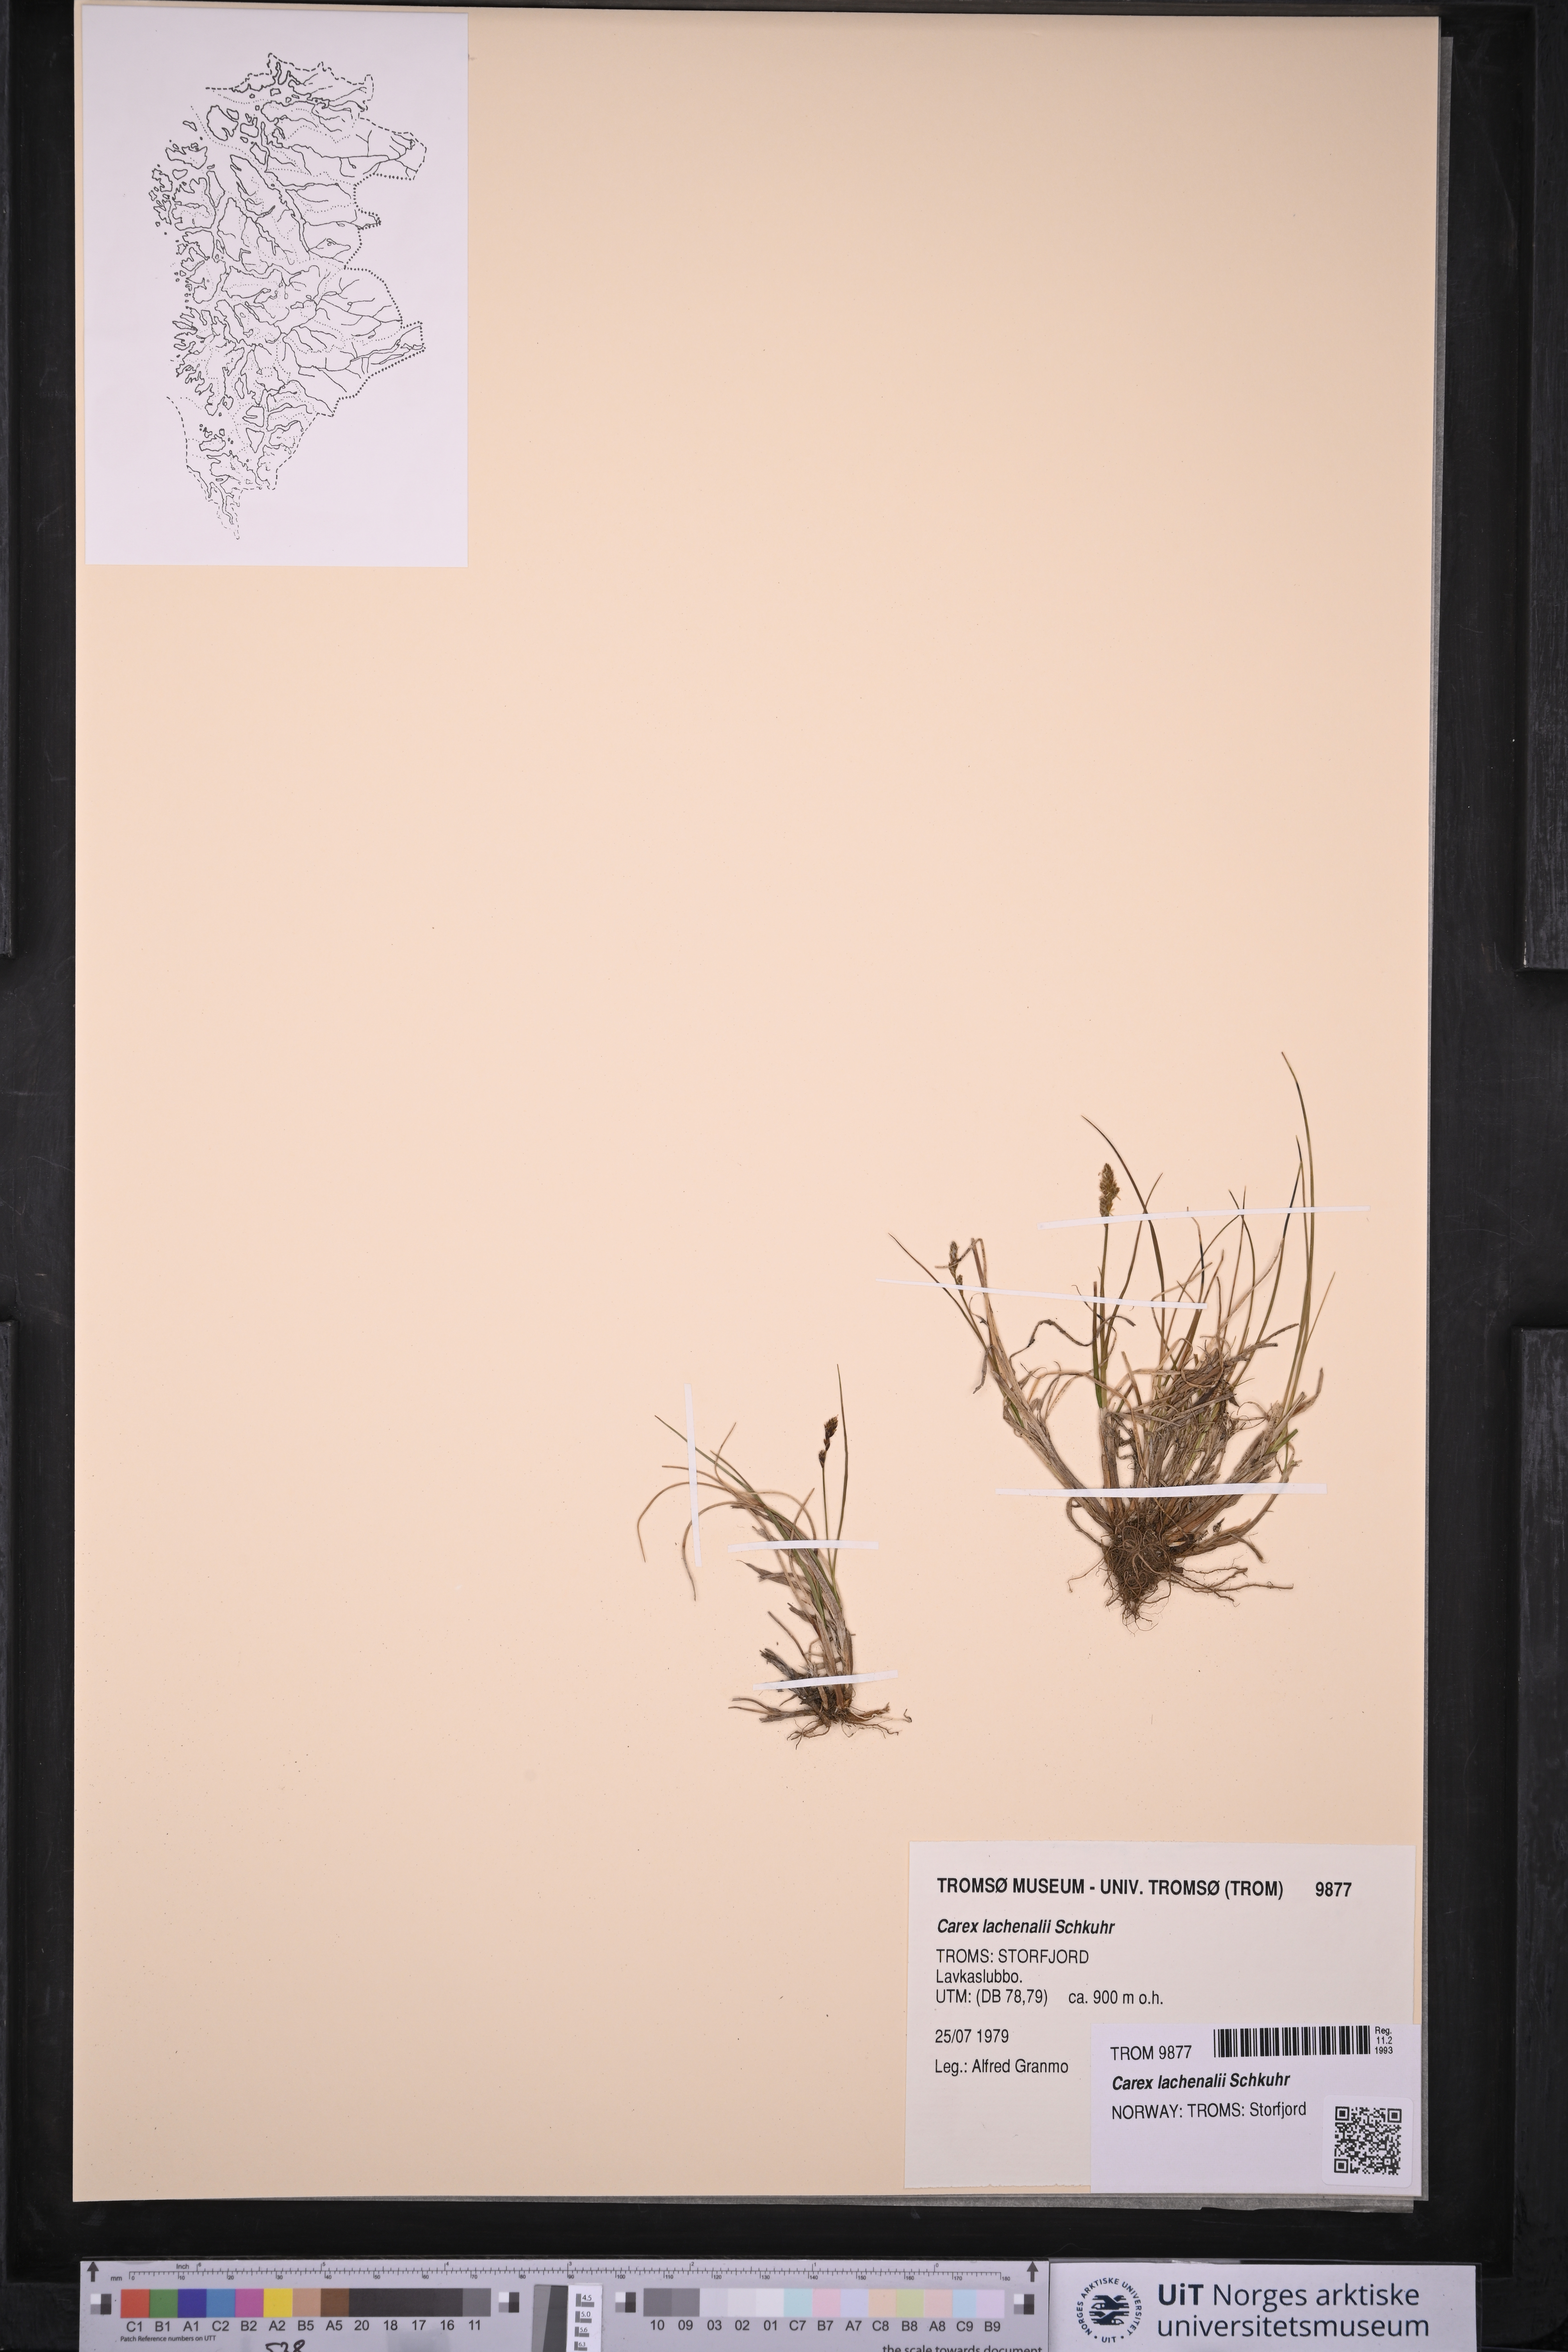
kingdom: Plantae
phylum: Tracheophyta
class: Liliopsida
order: Poales
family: Cyperaceae
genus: Carex
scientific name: Carex lachenalii
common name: Hare's-foot sedge
